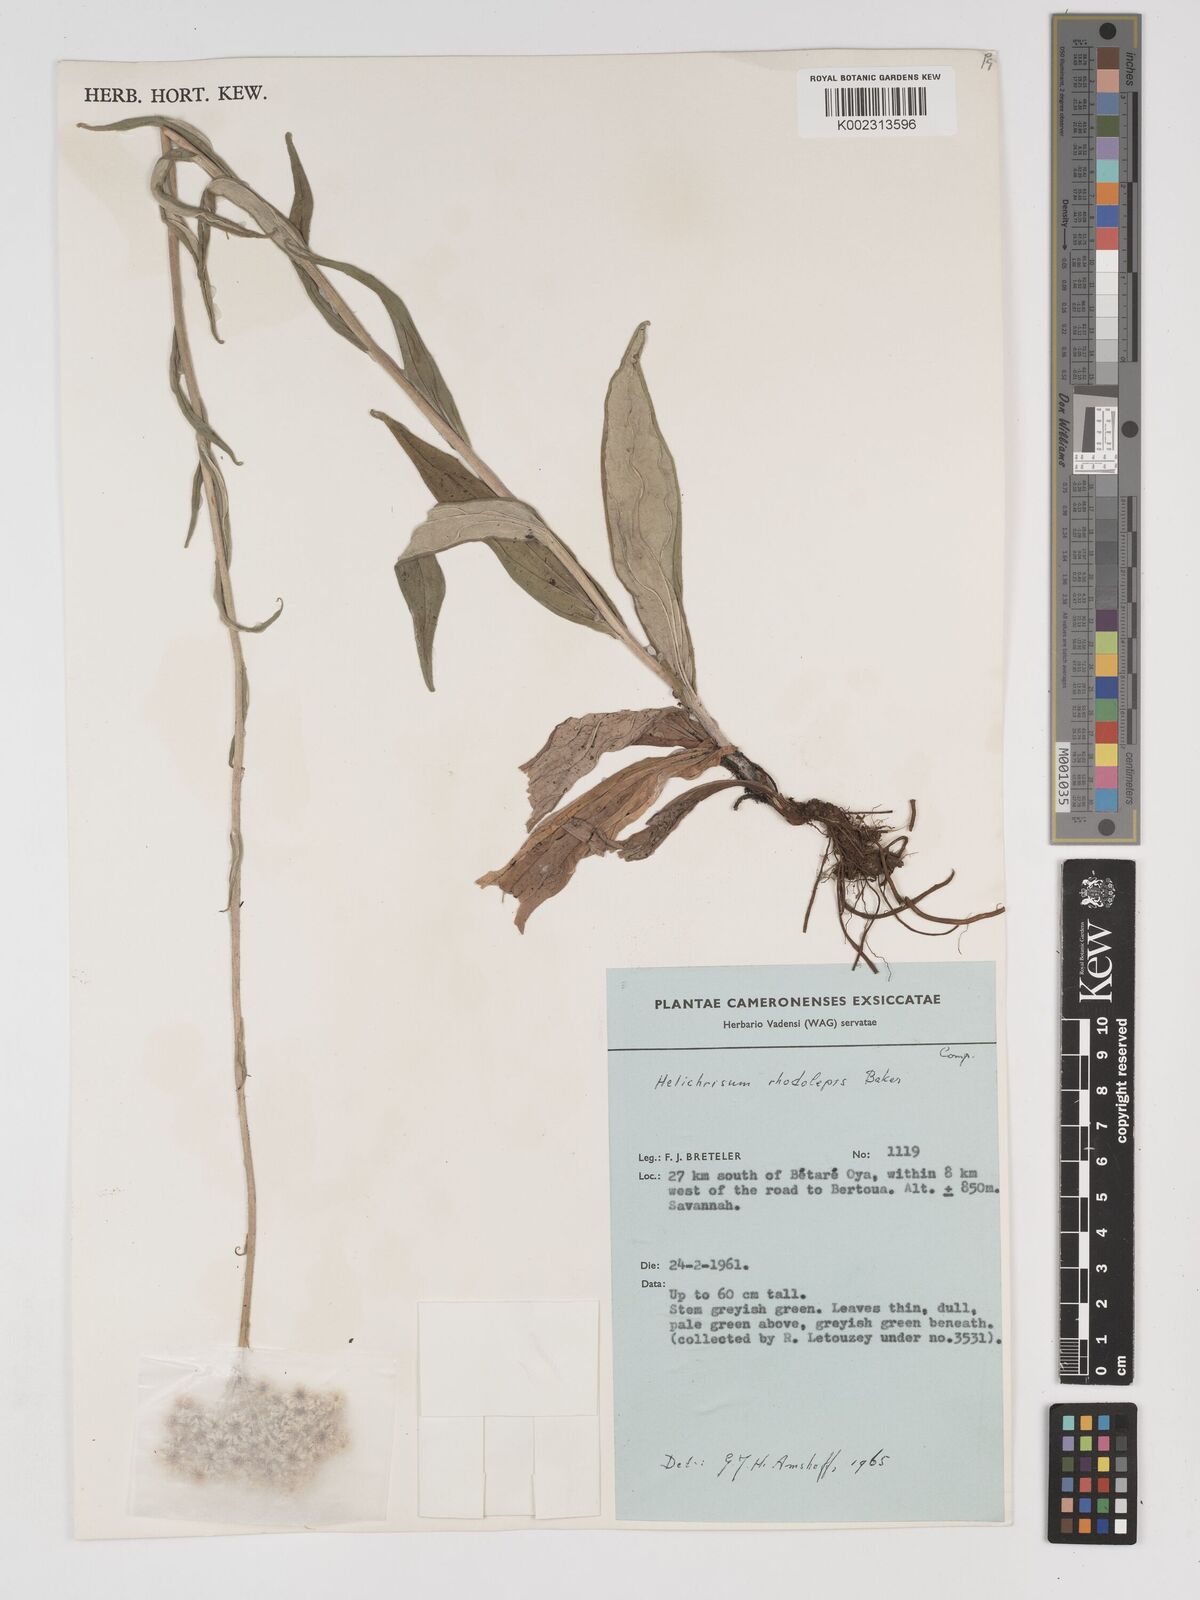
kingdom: Plantae
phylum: Tracheophyta
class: Magnoliopsida
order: Asterales
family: Asteraceae
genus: Helichrysum
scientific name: Helichrysum nudifolium
